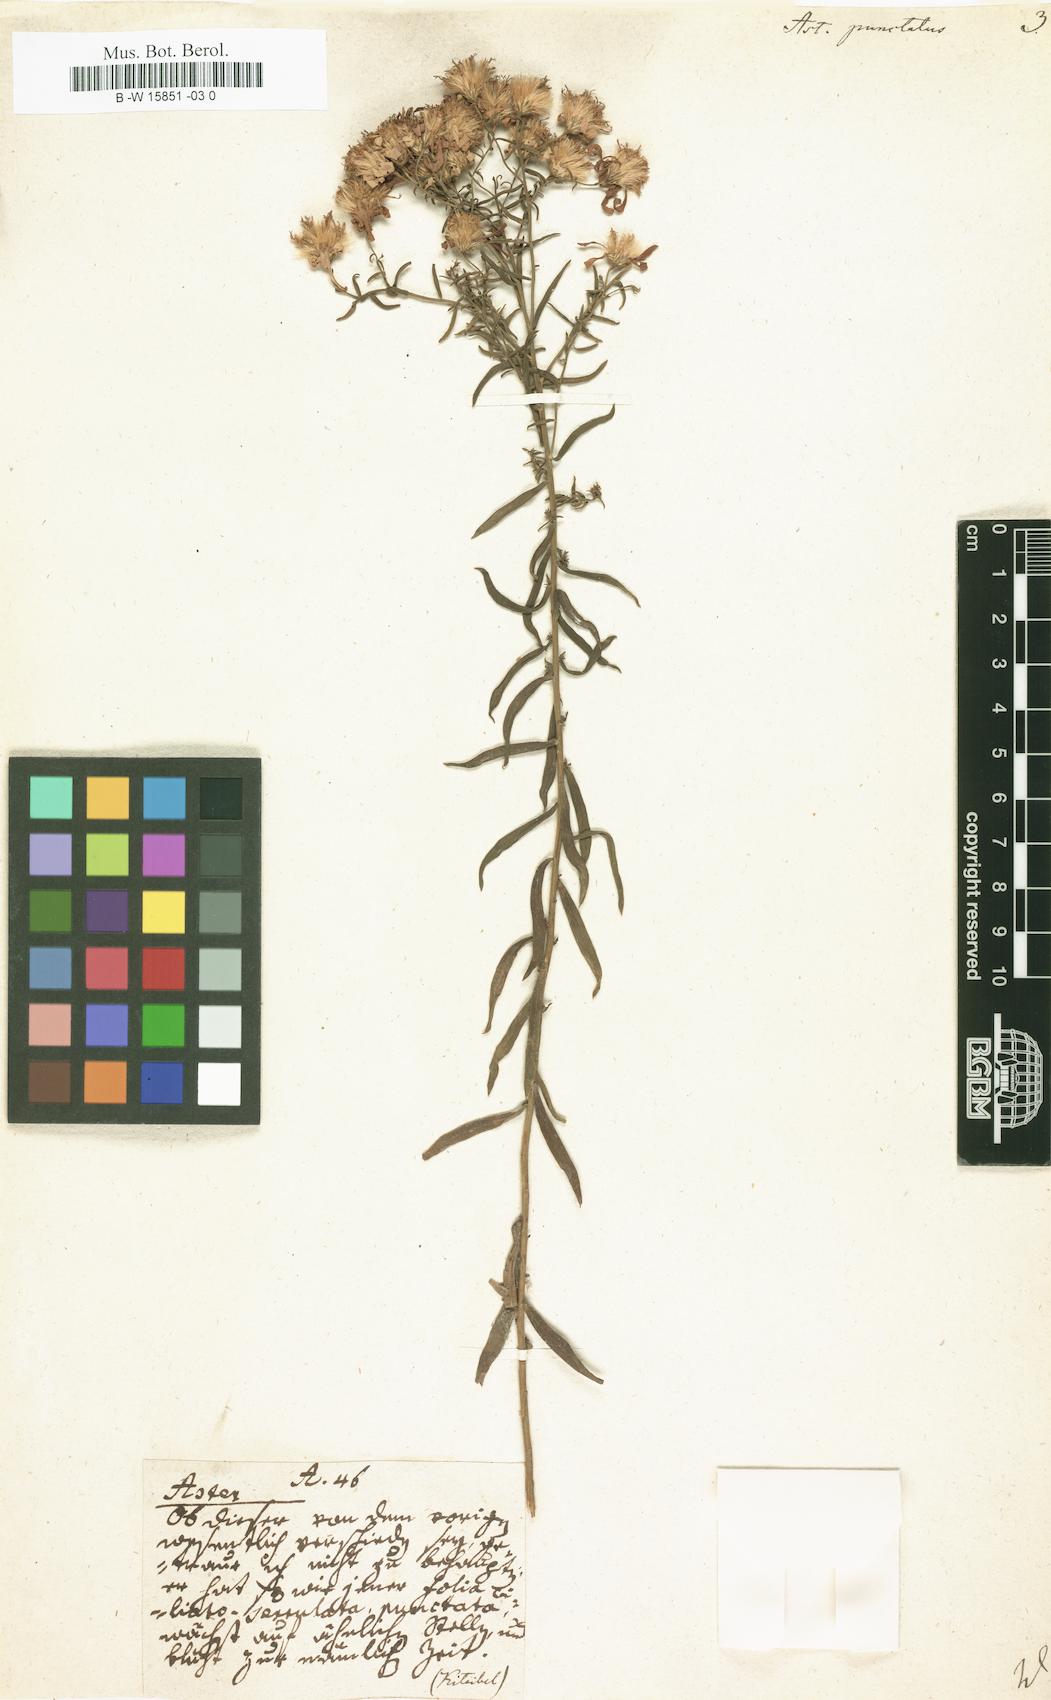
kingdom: Plantae
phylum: Tracheophyta
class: Magnoliopsida
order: Asterales
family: Asteraceae
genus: Aster
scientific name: Aster punctatus
